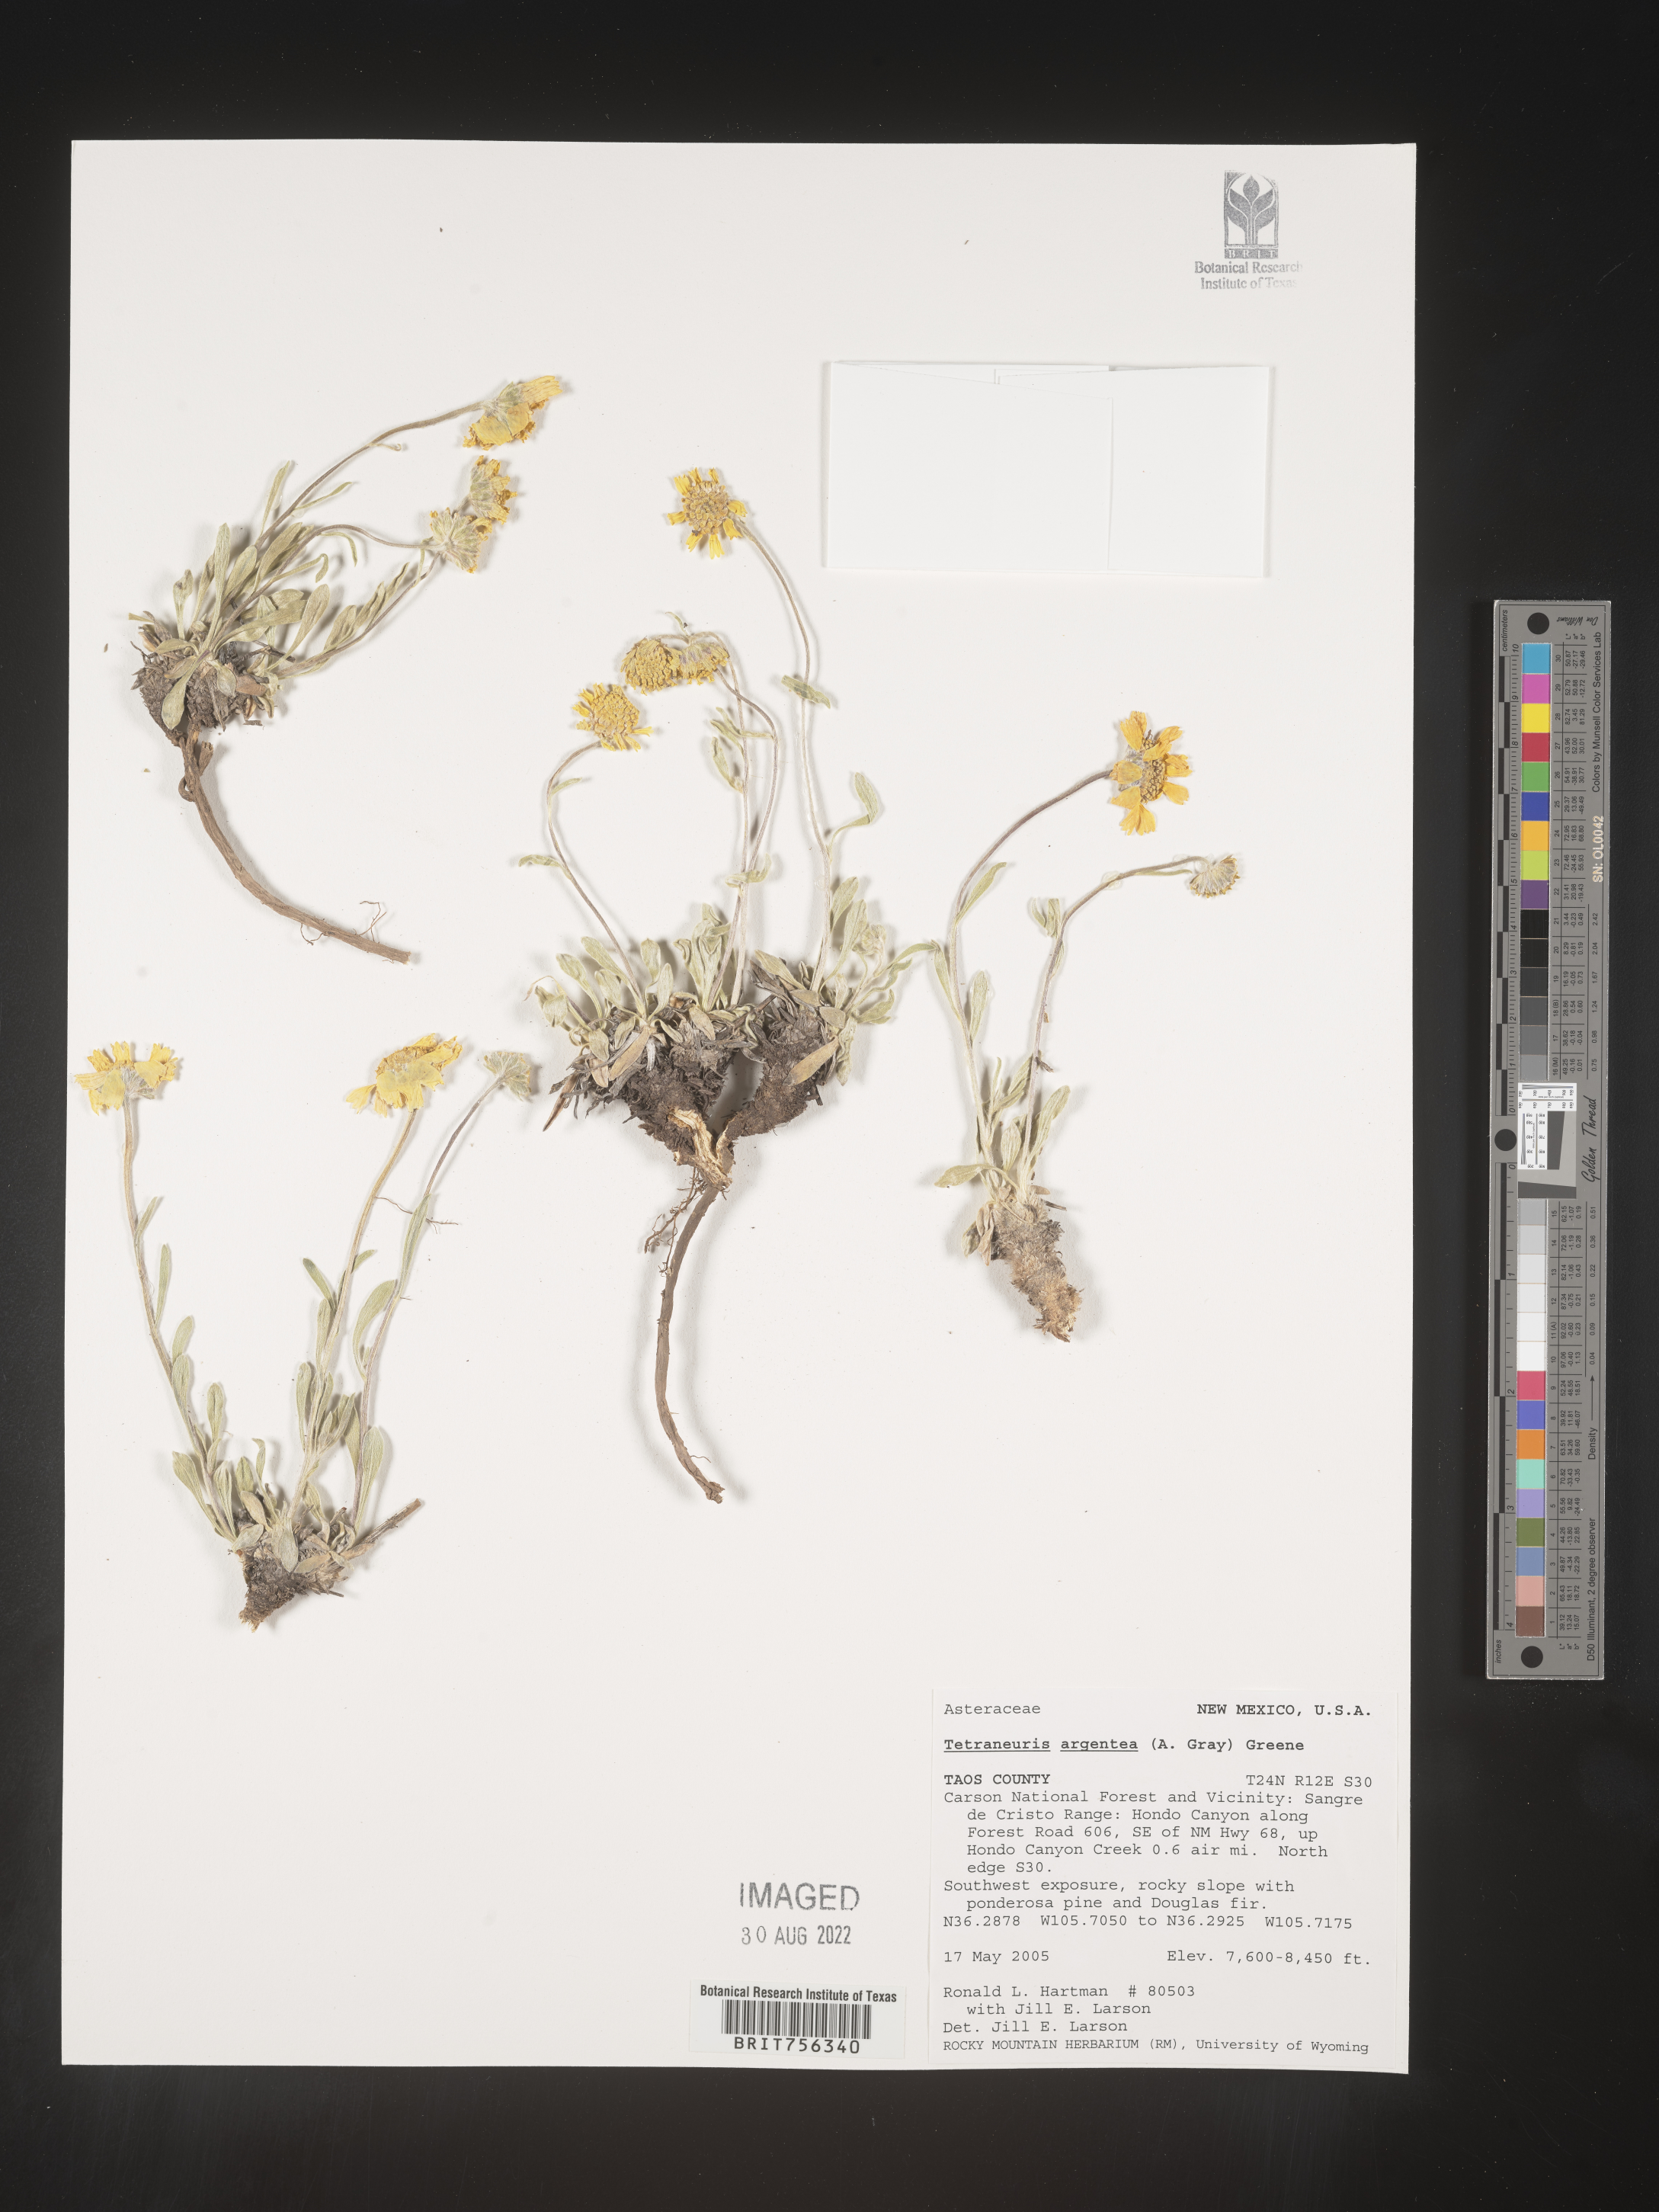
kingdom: Plantae
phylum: Tracheophyta
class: Magnoliopsida
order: Asterales
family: Asteraceae
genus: Tetraneuris
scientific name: Tetraneuris argentea
